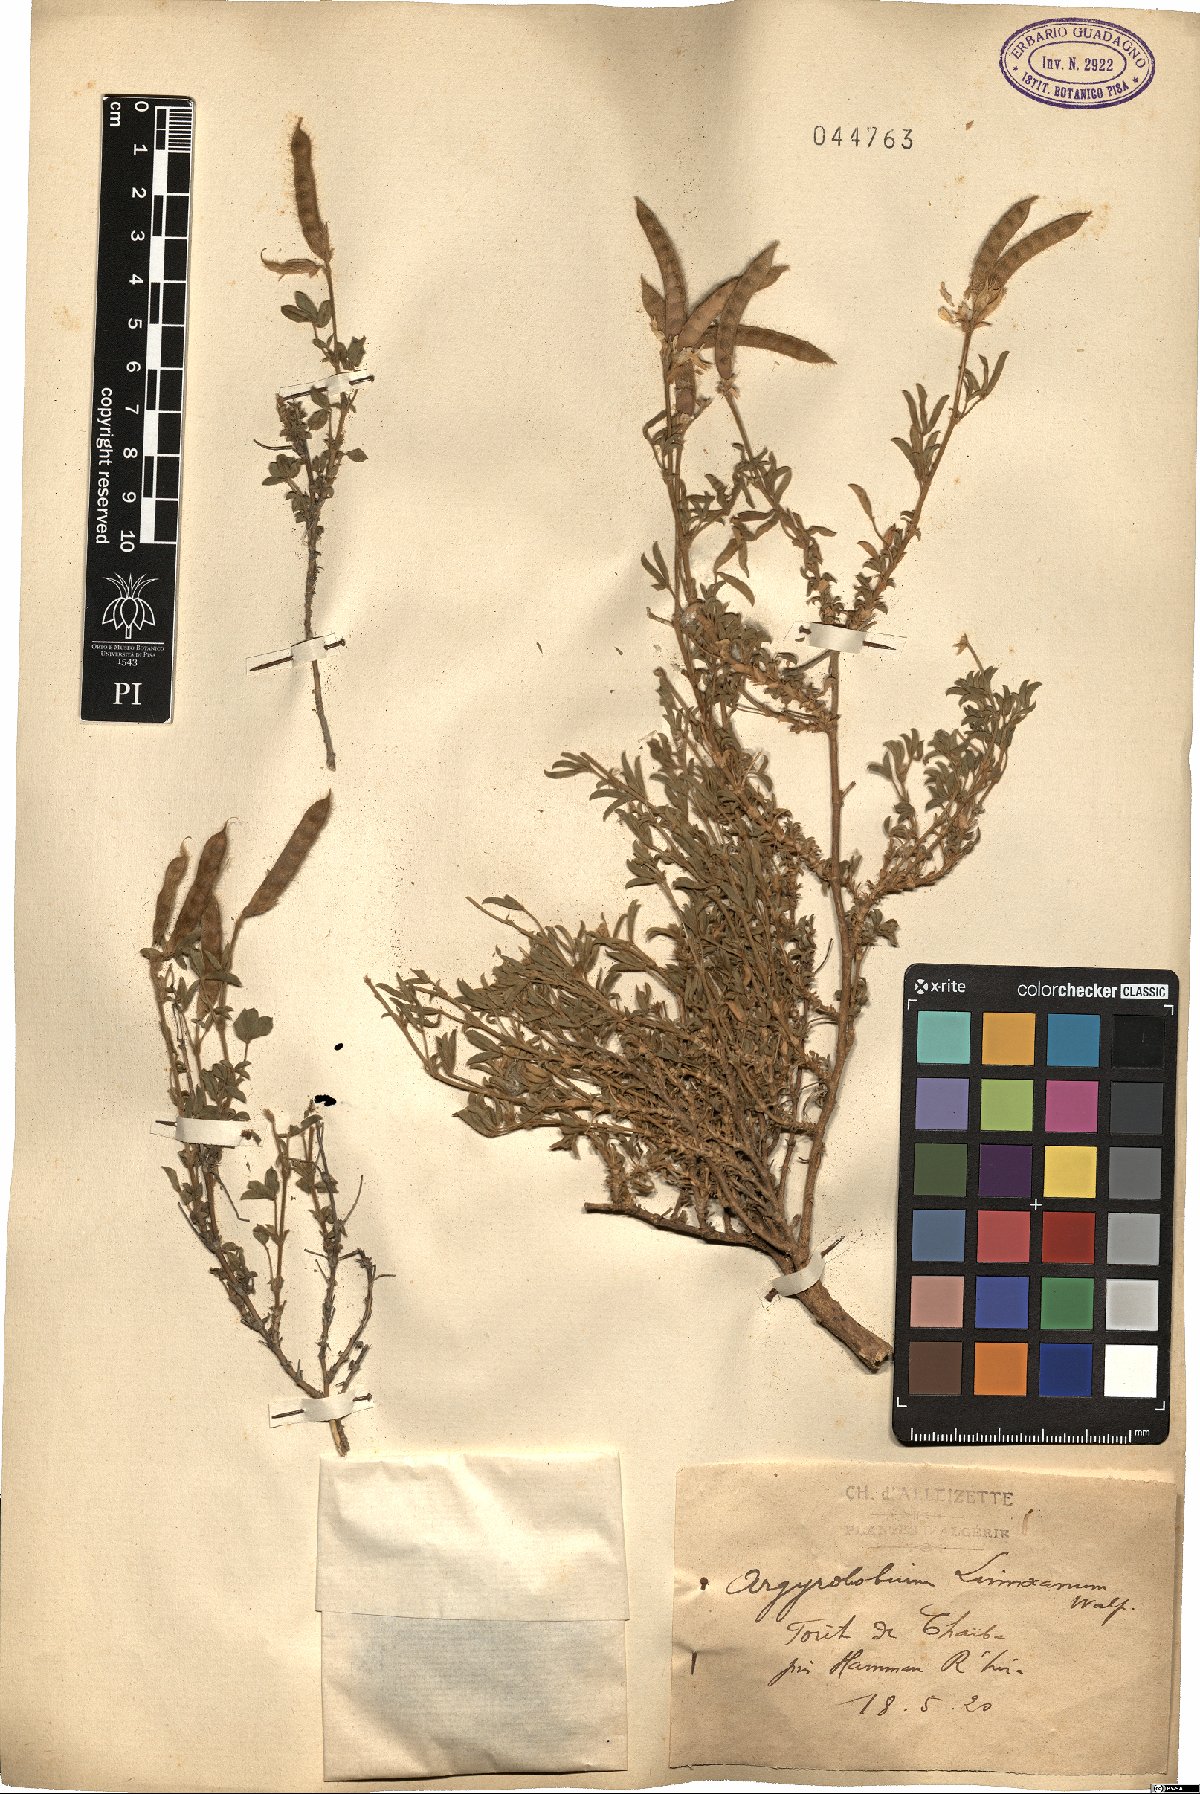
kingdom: Plantae
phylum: Tracheophyta
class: Magnoliopsida
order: Fabales
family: Fabaceae
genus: Argyrolobium
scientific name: Argyrolobium zanonii
